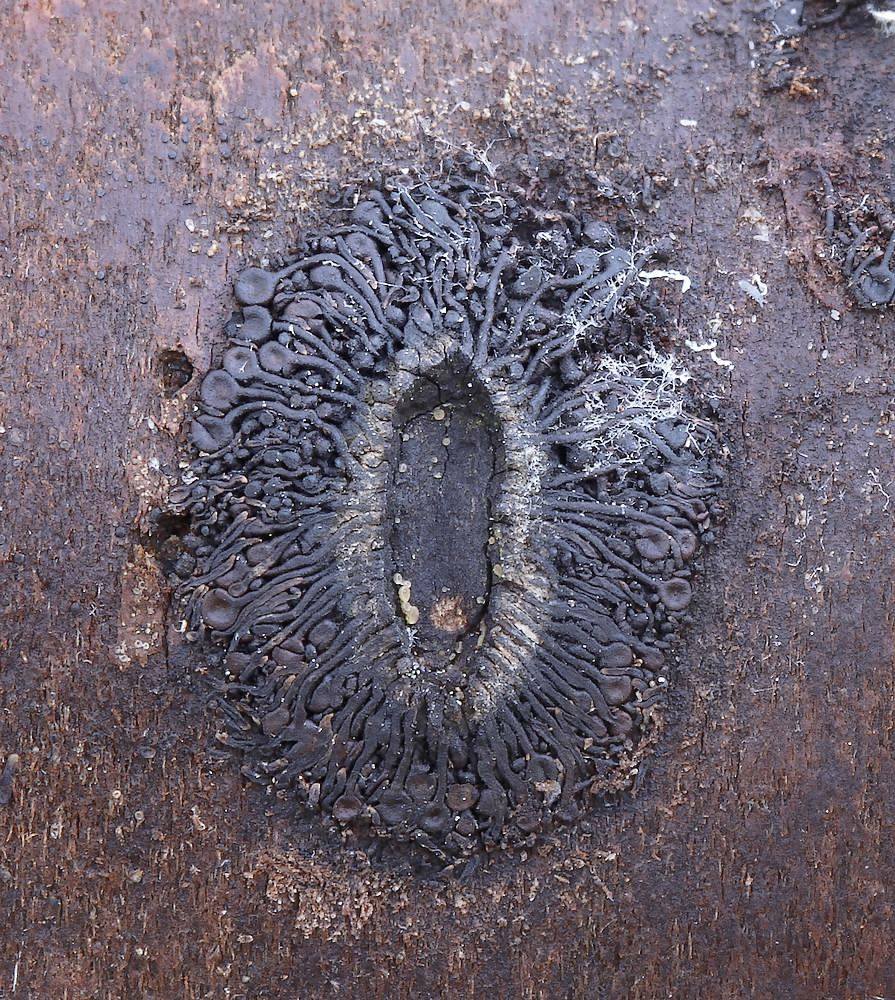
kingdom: Fungi
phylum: Ascomycota
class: Sordariomycetes
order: Calosphaeriales
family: Calosphaeriaceae
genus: Calosphaeria
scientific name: Calosphaeria pulchella
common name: smuk slyngkerne
